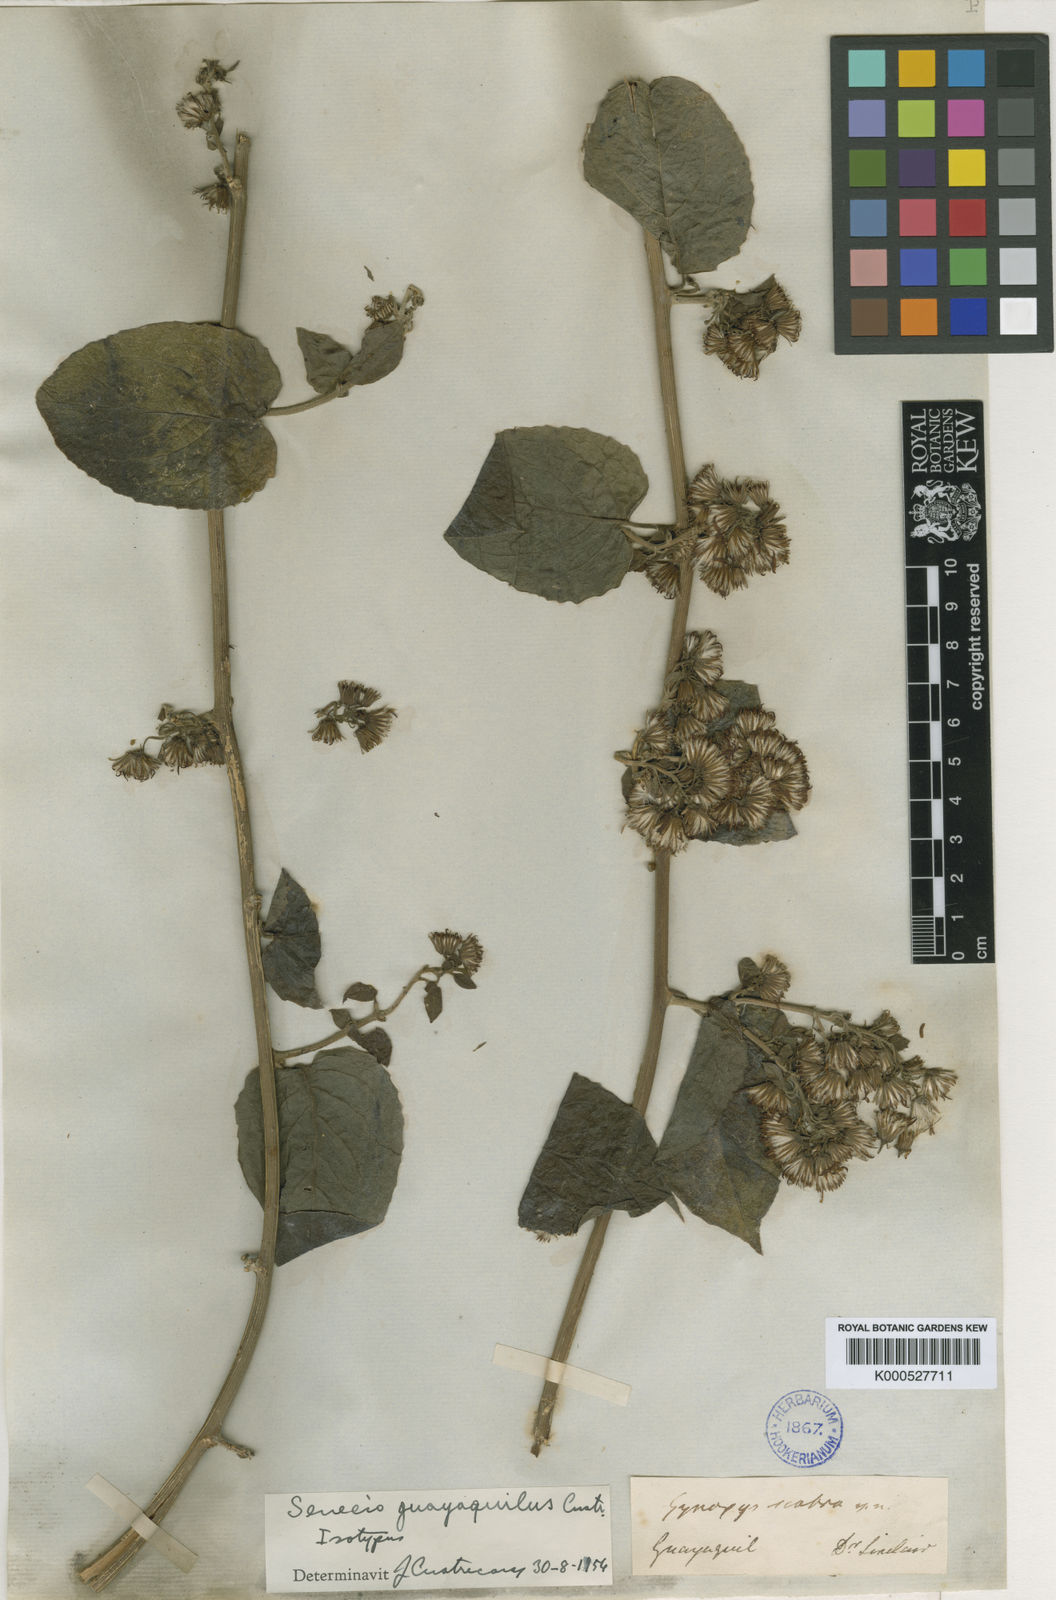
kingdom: Plantae
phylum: Tracheophyta
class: Magnoliopsida
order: Asterales
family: Asteraceae
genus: Pseudogynoxys
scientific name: Pseudogynoxys scabra
